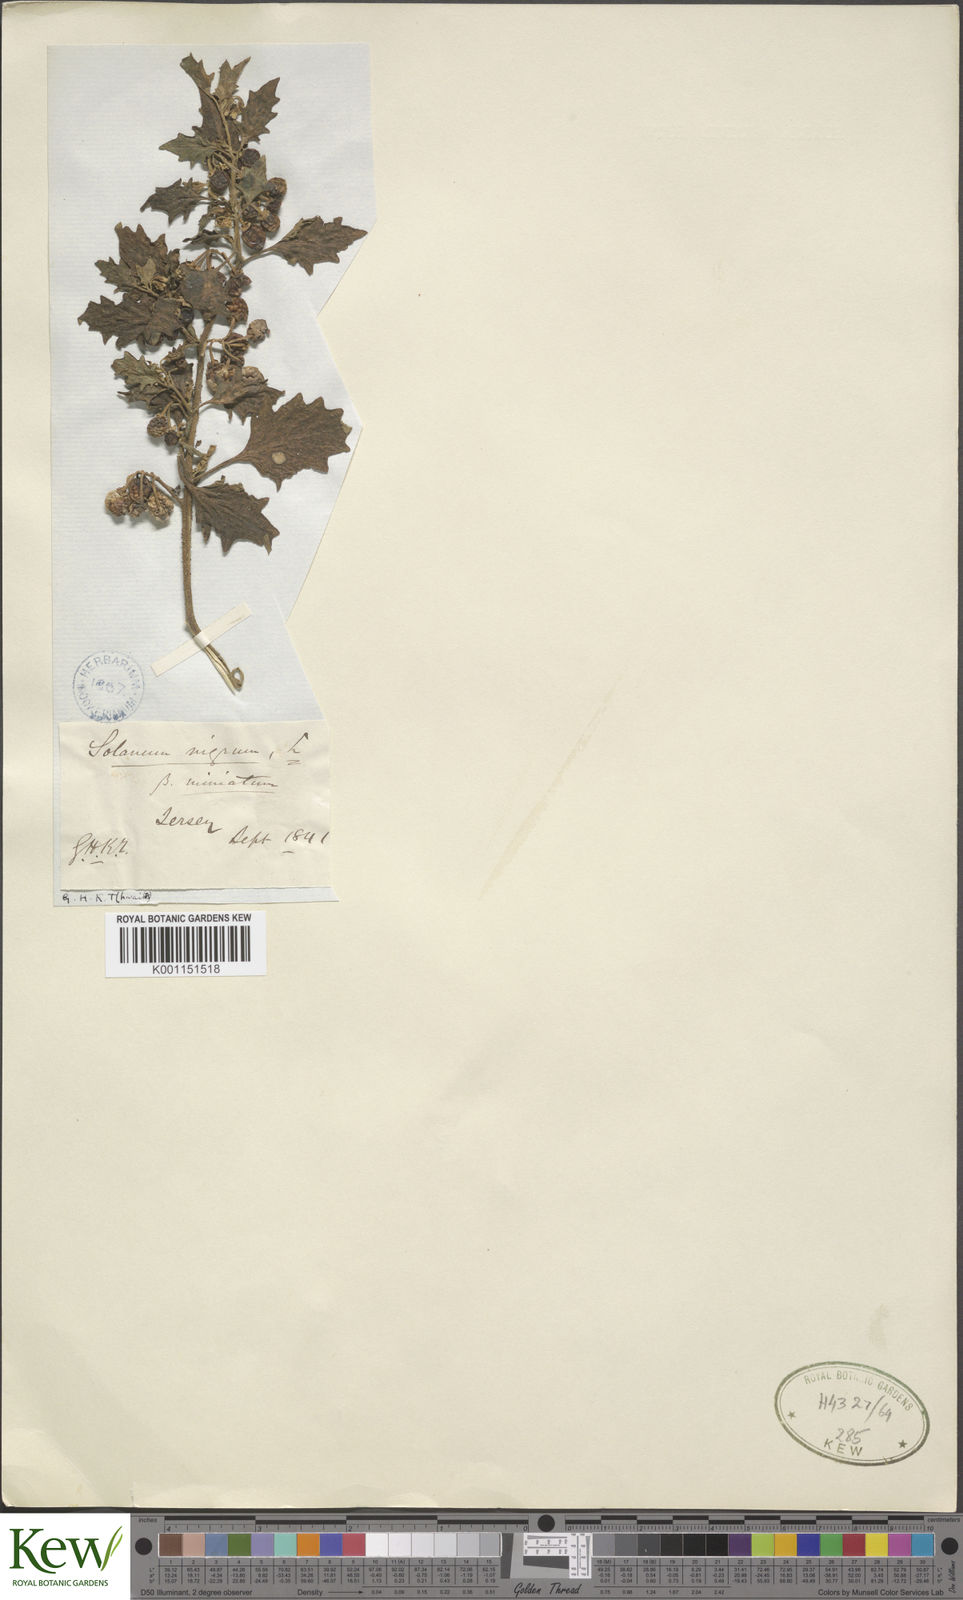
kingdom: Plantae
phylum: Tracheophyta
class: Magnoliopsida
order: Solanales
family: Solanaceae
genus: Solanum
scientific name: Solanum alatum
